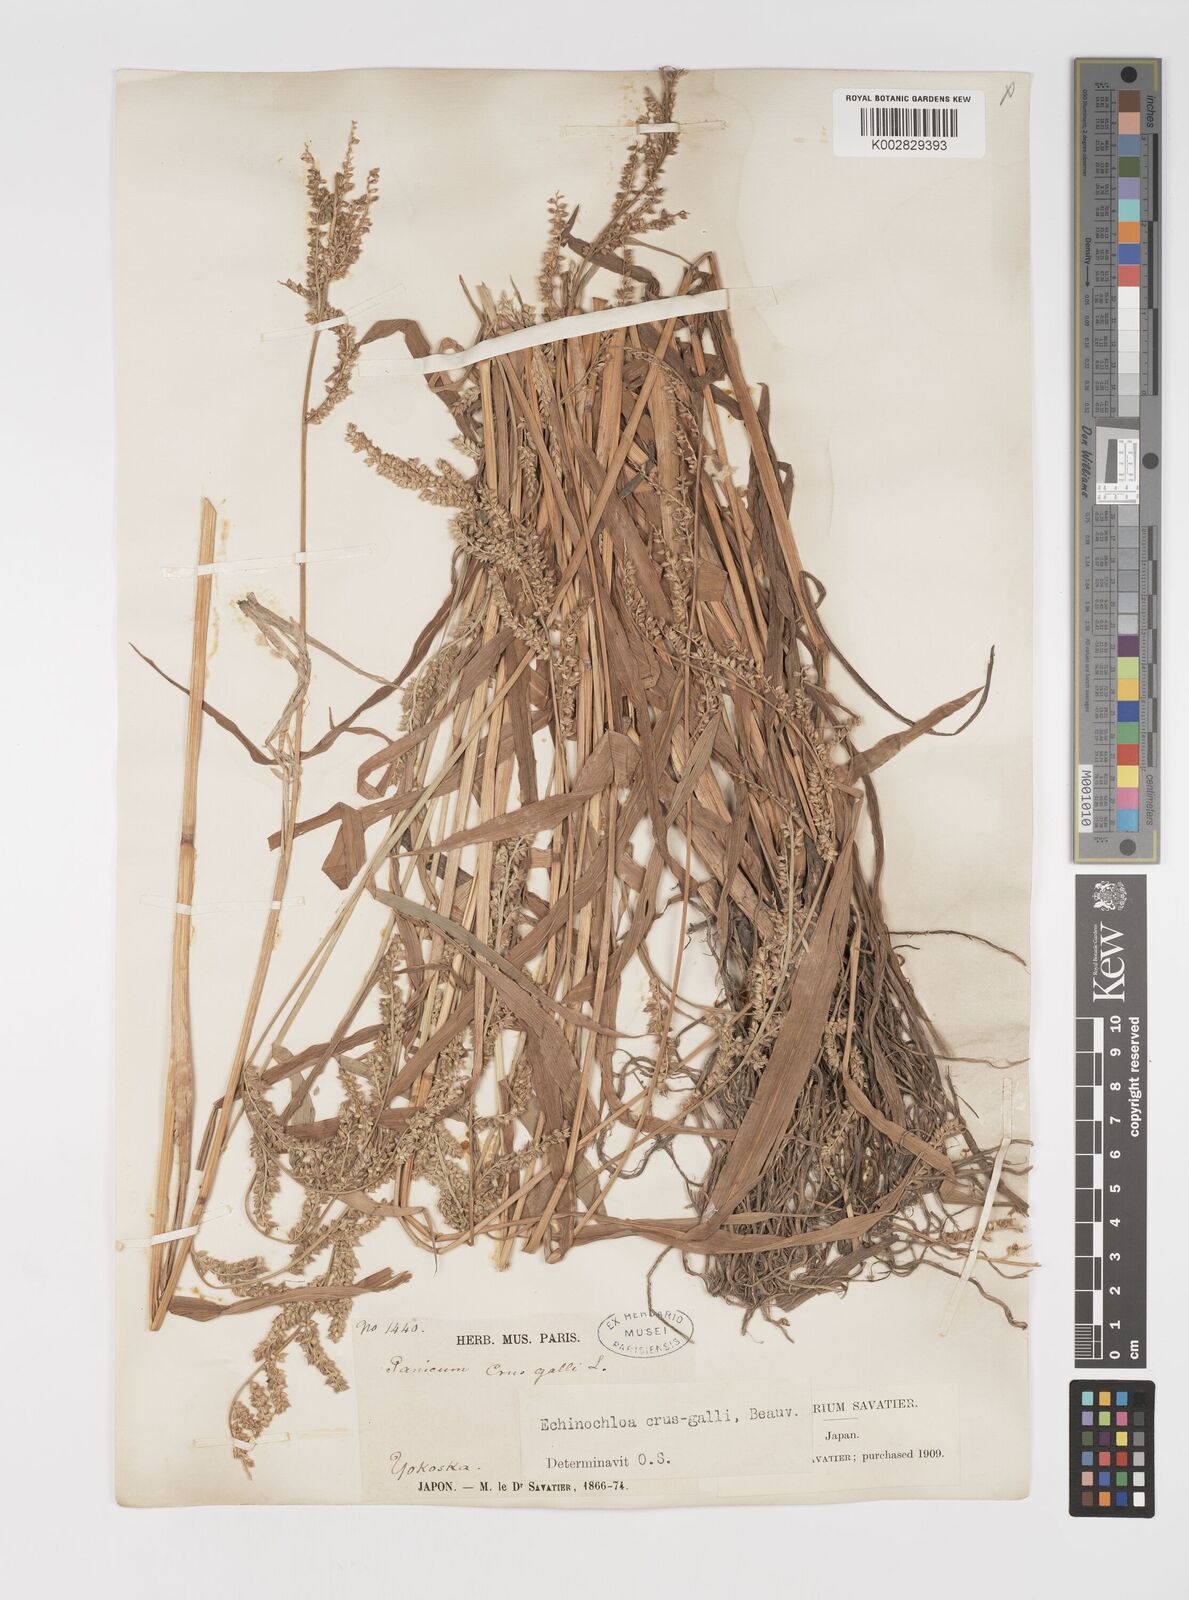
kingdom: Plantae
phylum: Tracheophyta
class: Liliopsida
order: Poales
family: Poaceae
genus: Echinochloa
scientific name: Echinochloa crus-galli
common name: Cockspur
